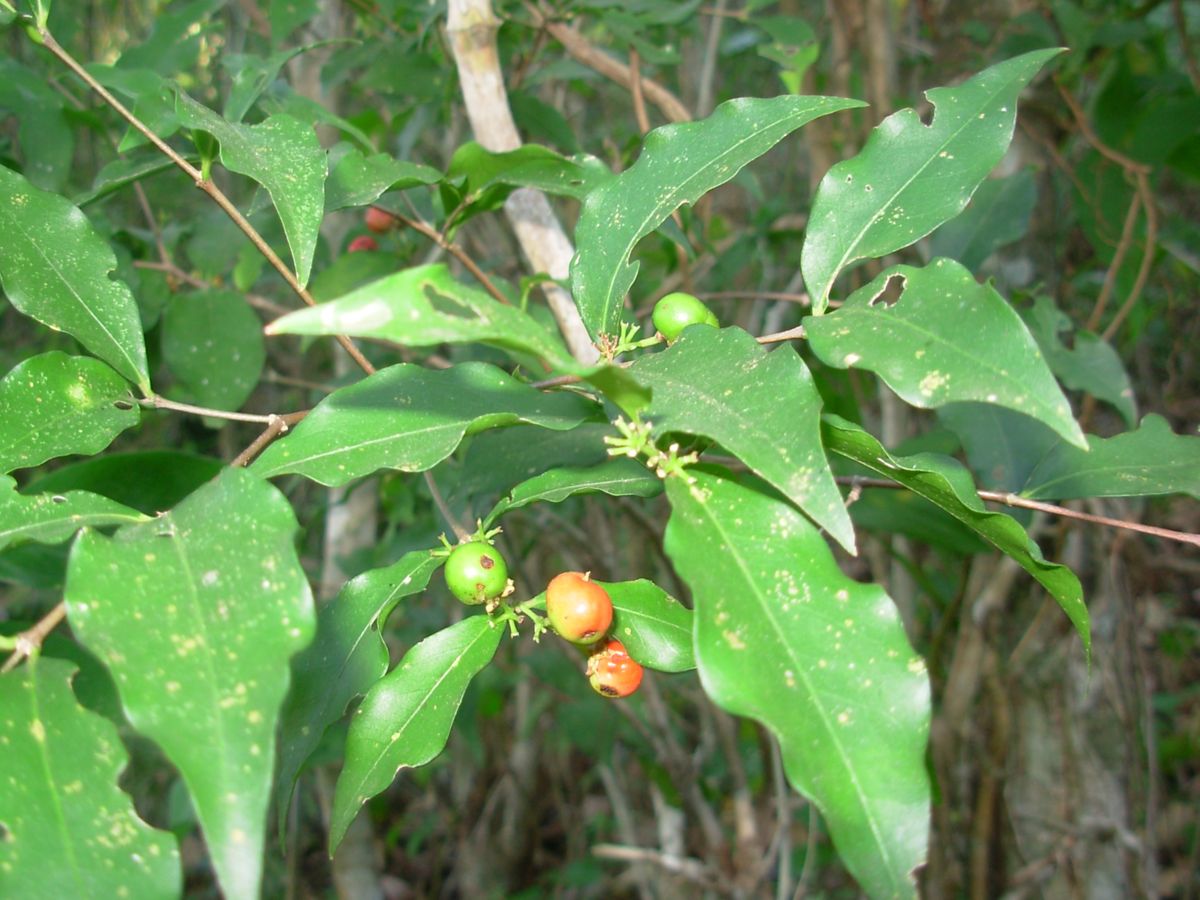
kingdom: Plantae
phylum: Tracheophyta
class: Magnoliopsida
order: Malpighiales
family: Malpighiaceae
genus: Malpighia
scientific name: Malpighia glabra
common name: Barbados cherry
